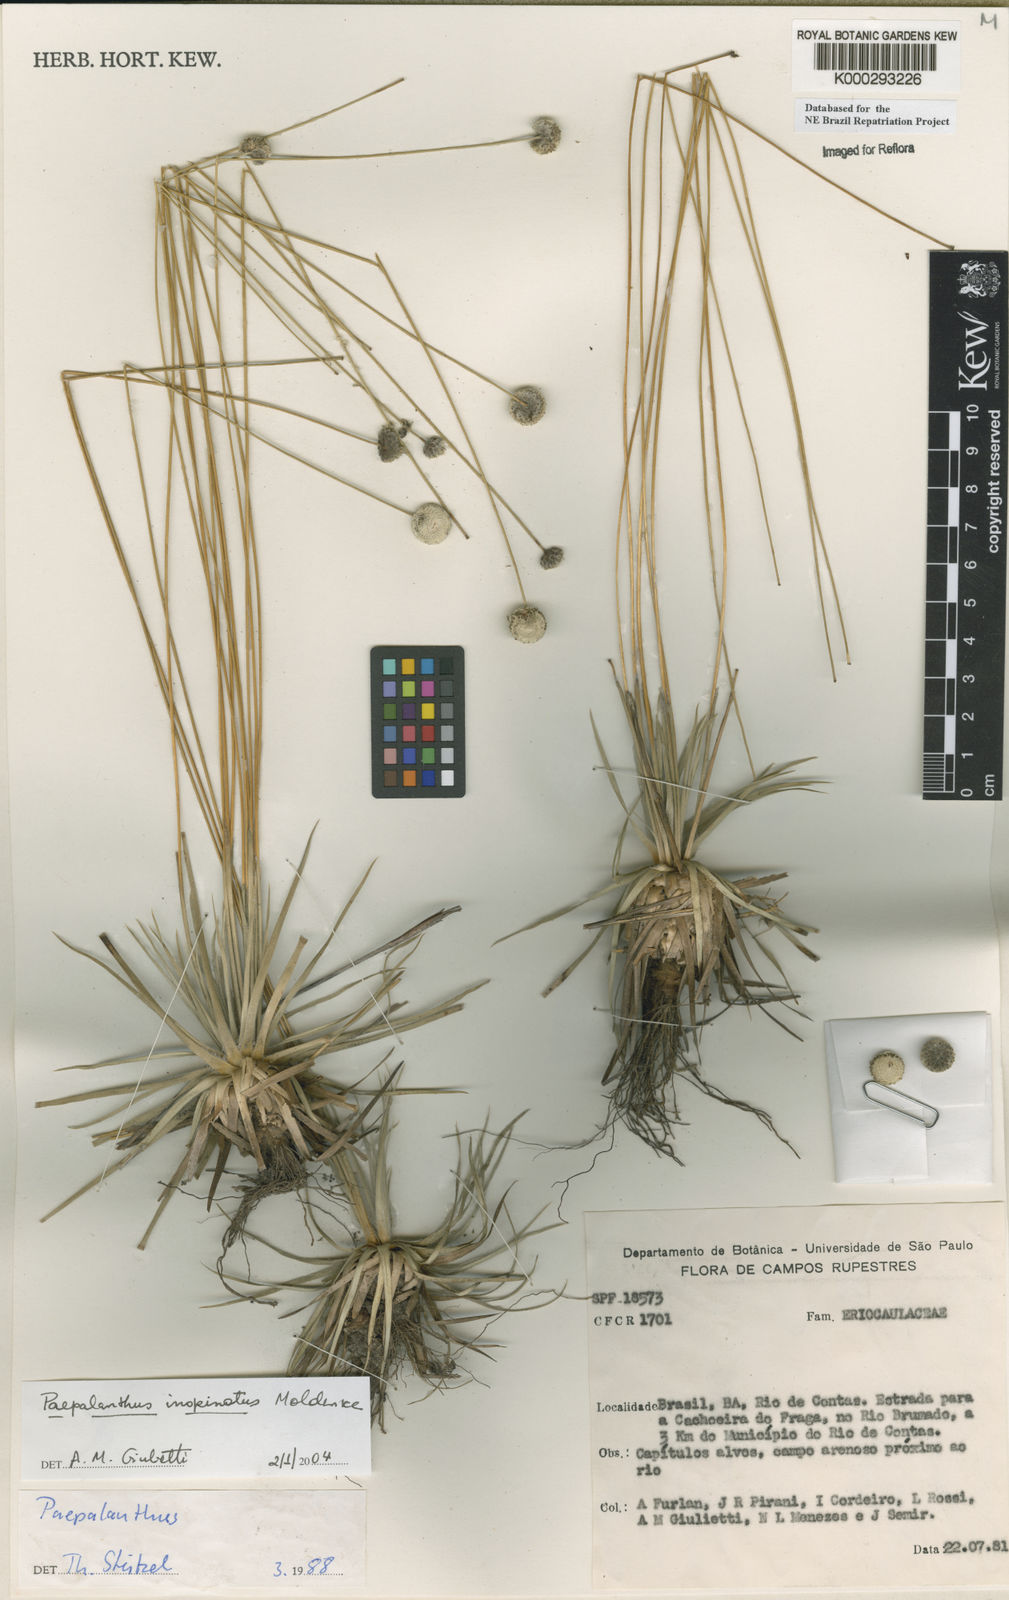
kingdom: Plantae
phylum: Tracheophyta
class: Liliopsida
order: Poales
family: Eriocaulaceae
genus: Paepalanthus
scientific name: Paepalanthus inopinatus
